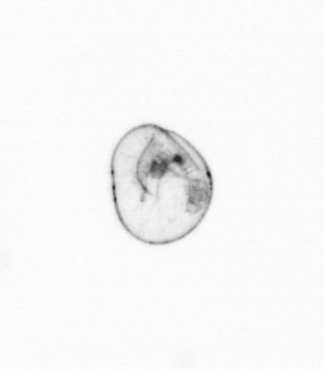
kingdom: Chromista
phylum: Myzozoa
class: Dinophyceae
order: Noctilucales
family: Noctilucaceae
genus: Noctiluca
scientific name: Noctiluca scintillans
